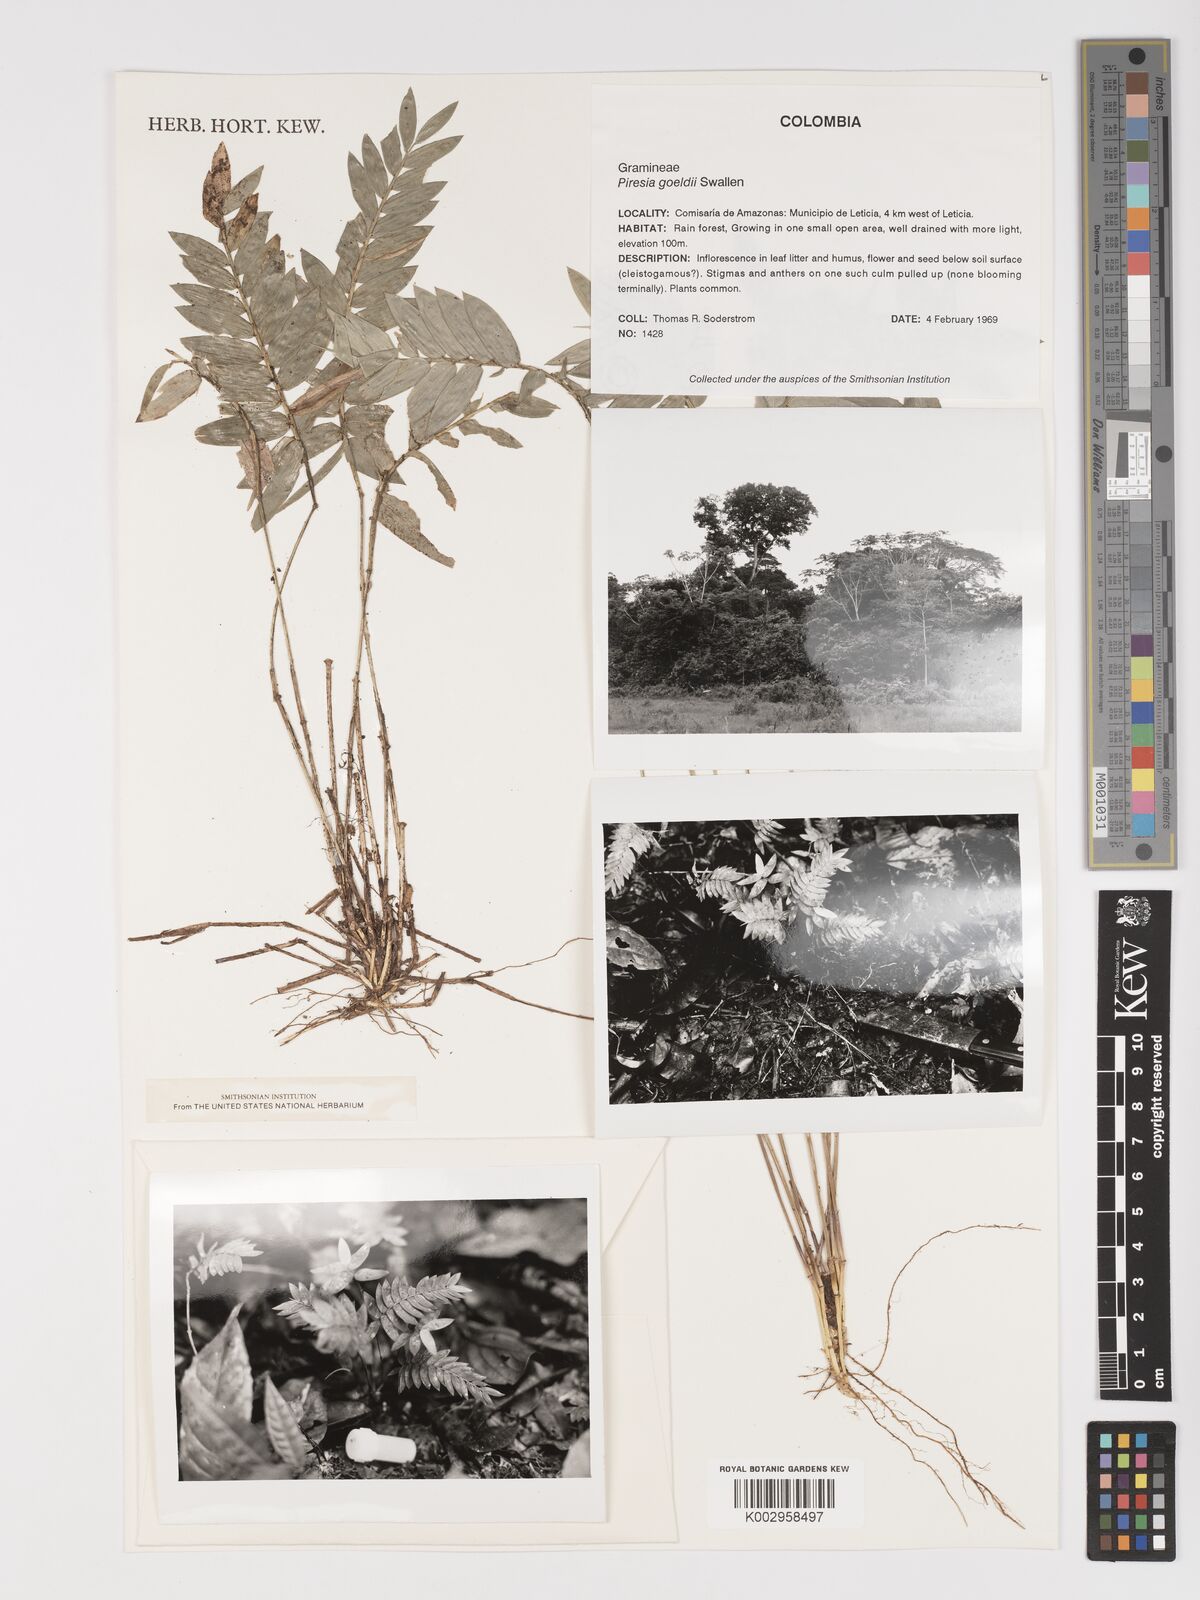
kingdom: Plantae
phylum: Tracheophyta
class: Liliopsida
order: Poales
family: Poaceae
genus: Piresia
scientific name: Piresia leptophylla
